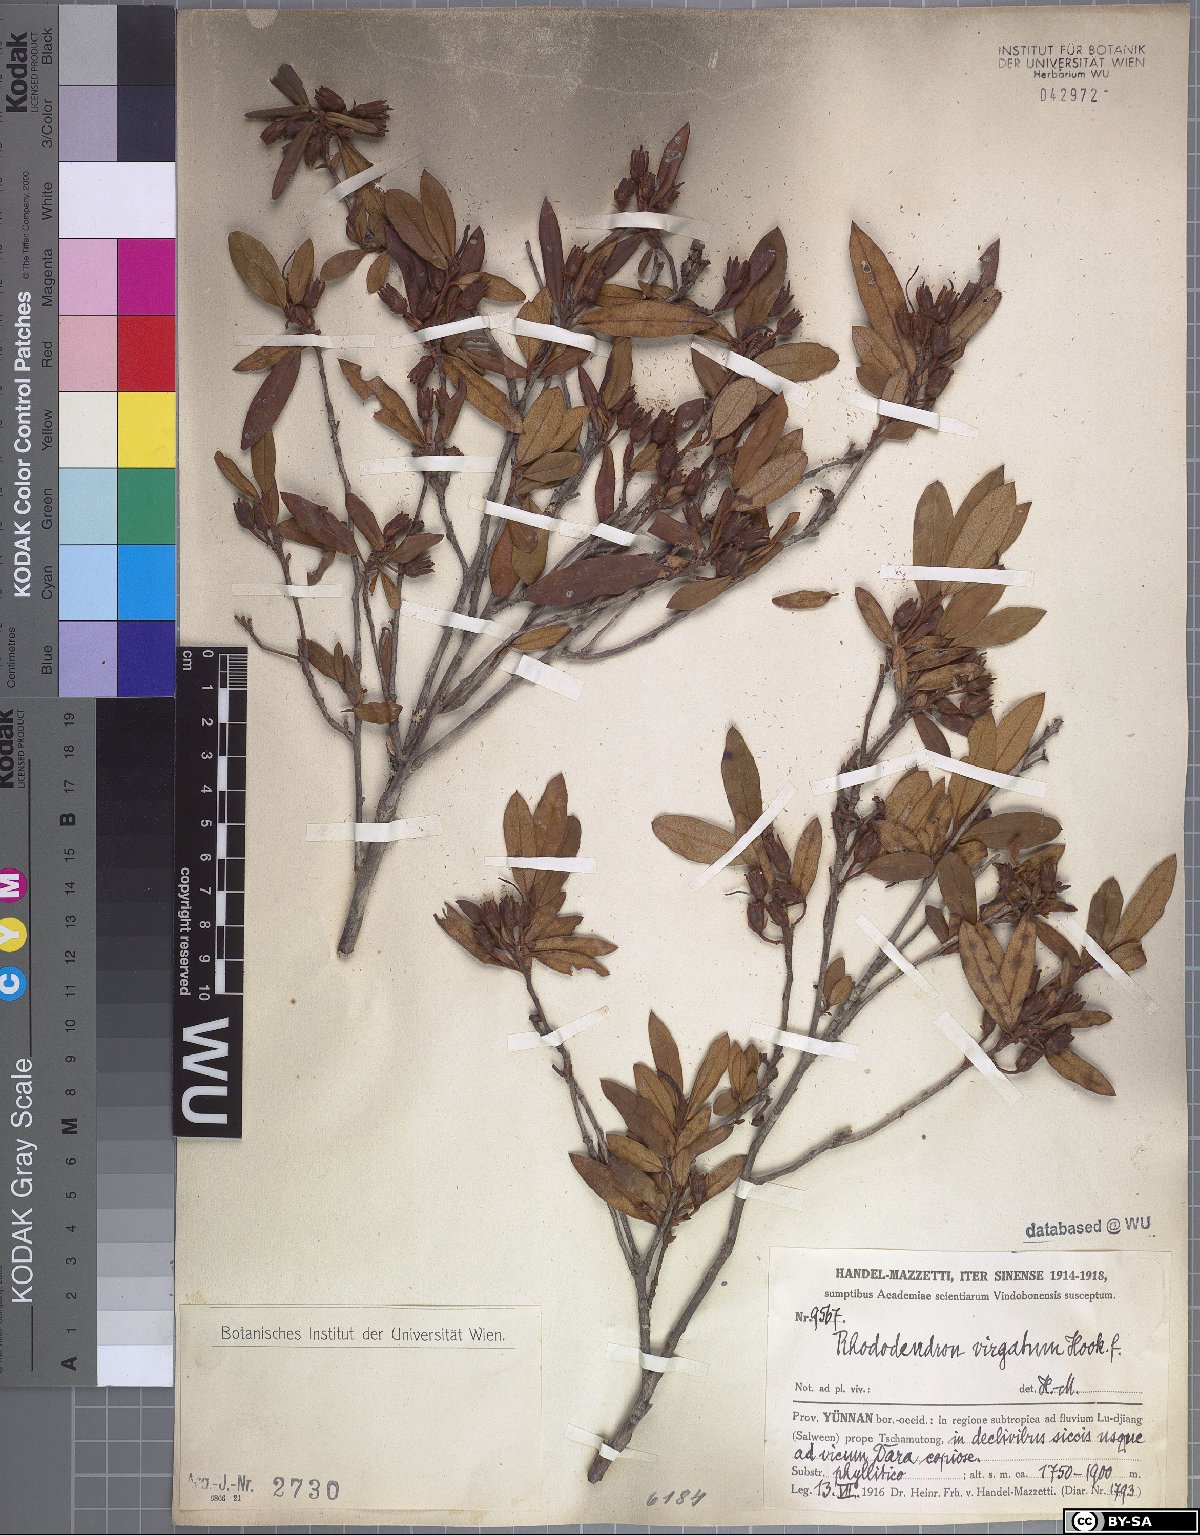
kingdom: Plantae
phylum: Tracheophyta
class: Magnoliopsida
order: Ericales
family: Ericaceae
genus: Rhododendron
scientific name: Rhododendron virgatum
